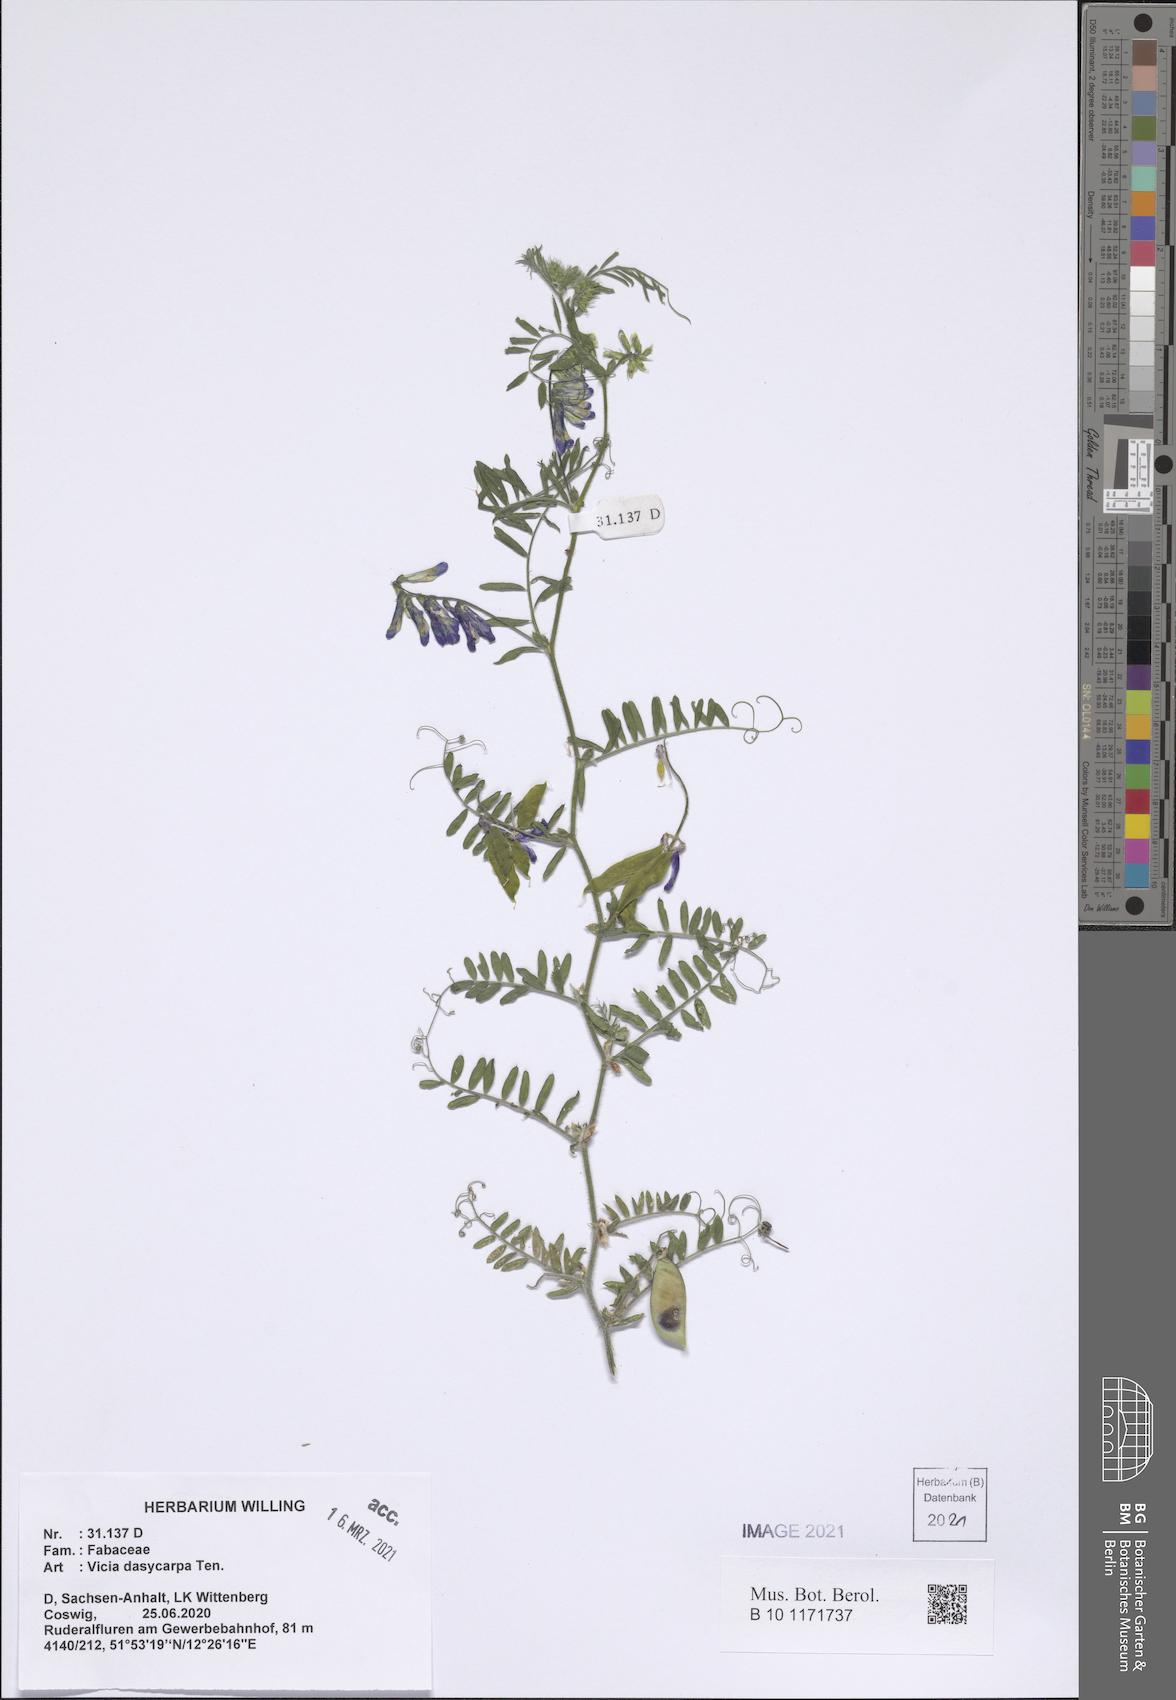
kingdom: Plantae
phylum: Tracheophyta
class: Magnoliopsida
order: Fabales
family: Fabaceae
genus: Vicia
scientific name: Vicia villosa
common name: Fodder vetch
